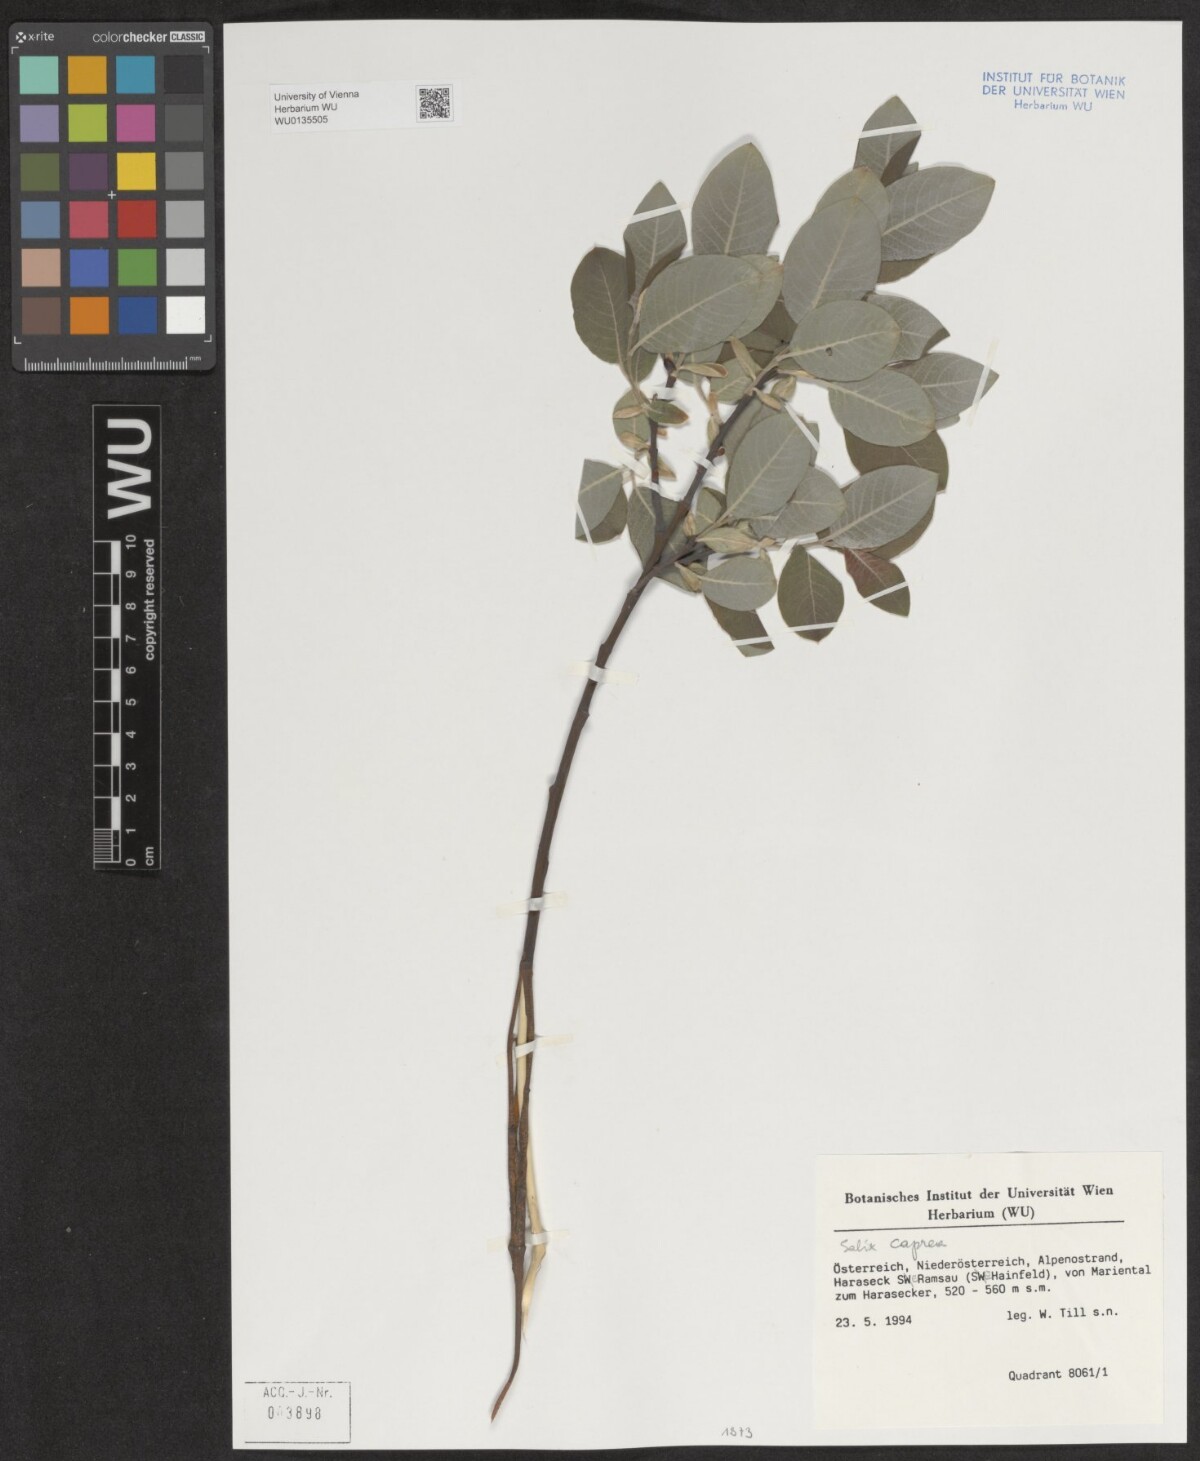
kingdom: Plantae
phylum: Tracheophyta
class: Magnoliopsida
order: Malpighiales
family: Salicaceae
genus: Salix
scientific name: Salix caprea
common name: Goat willow
